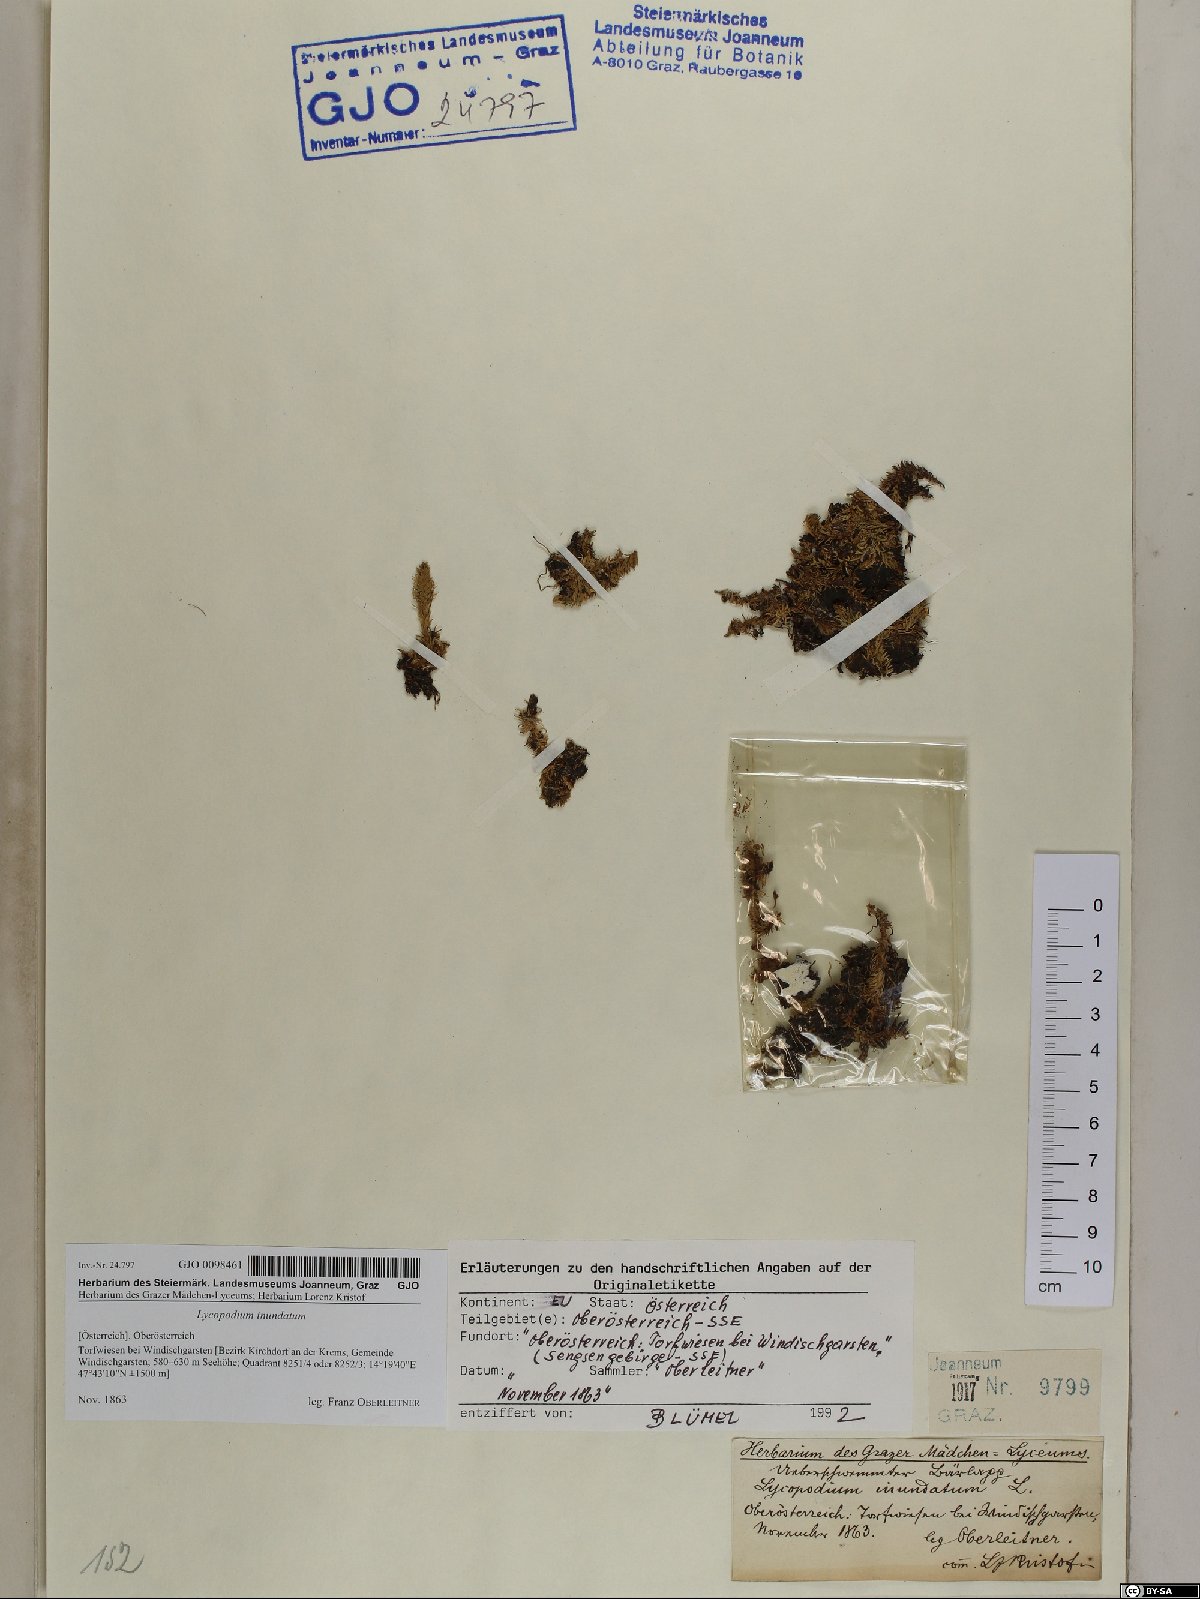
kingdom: Plantae
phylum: Tracheophyta
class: Lycopodiopsida
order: Lycopodiales
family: Lycopodiaceae
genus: Lycopodiella
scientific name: Lycopodiella inundata
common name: Marsh clubmoss
